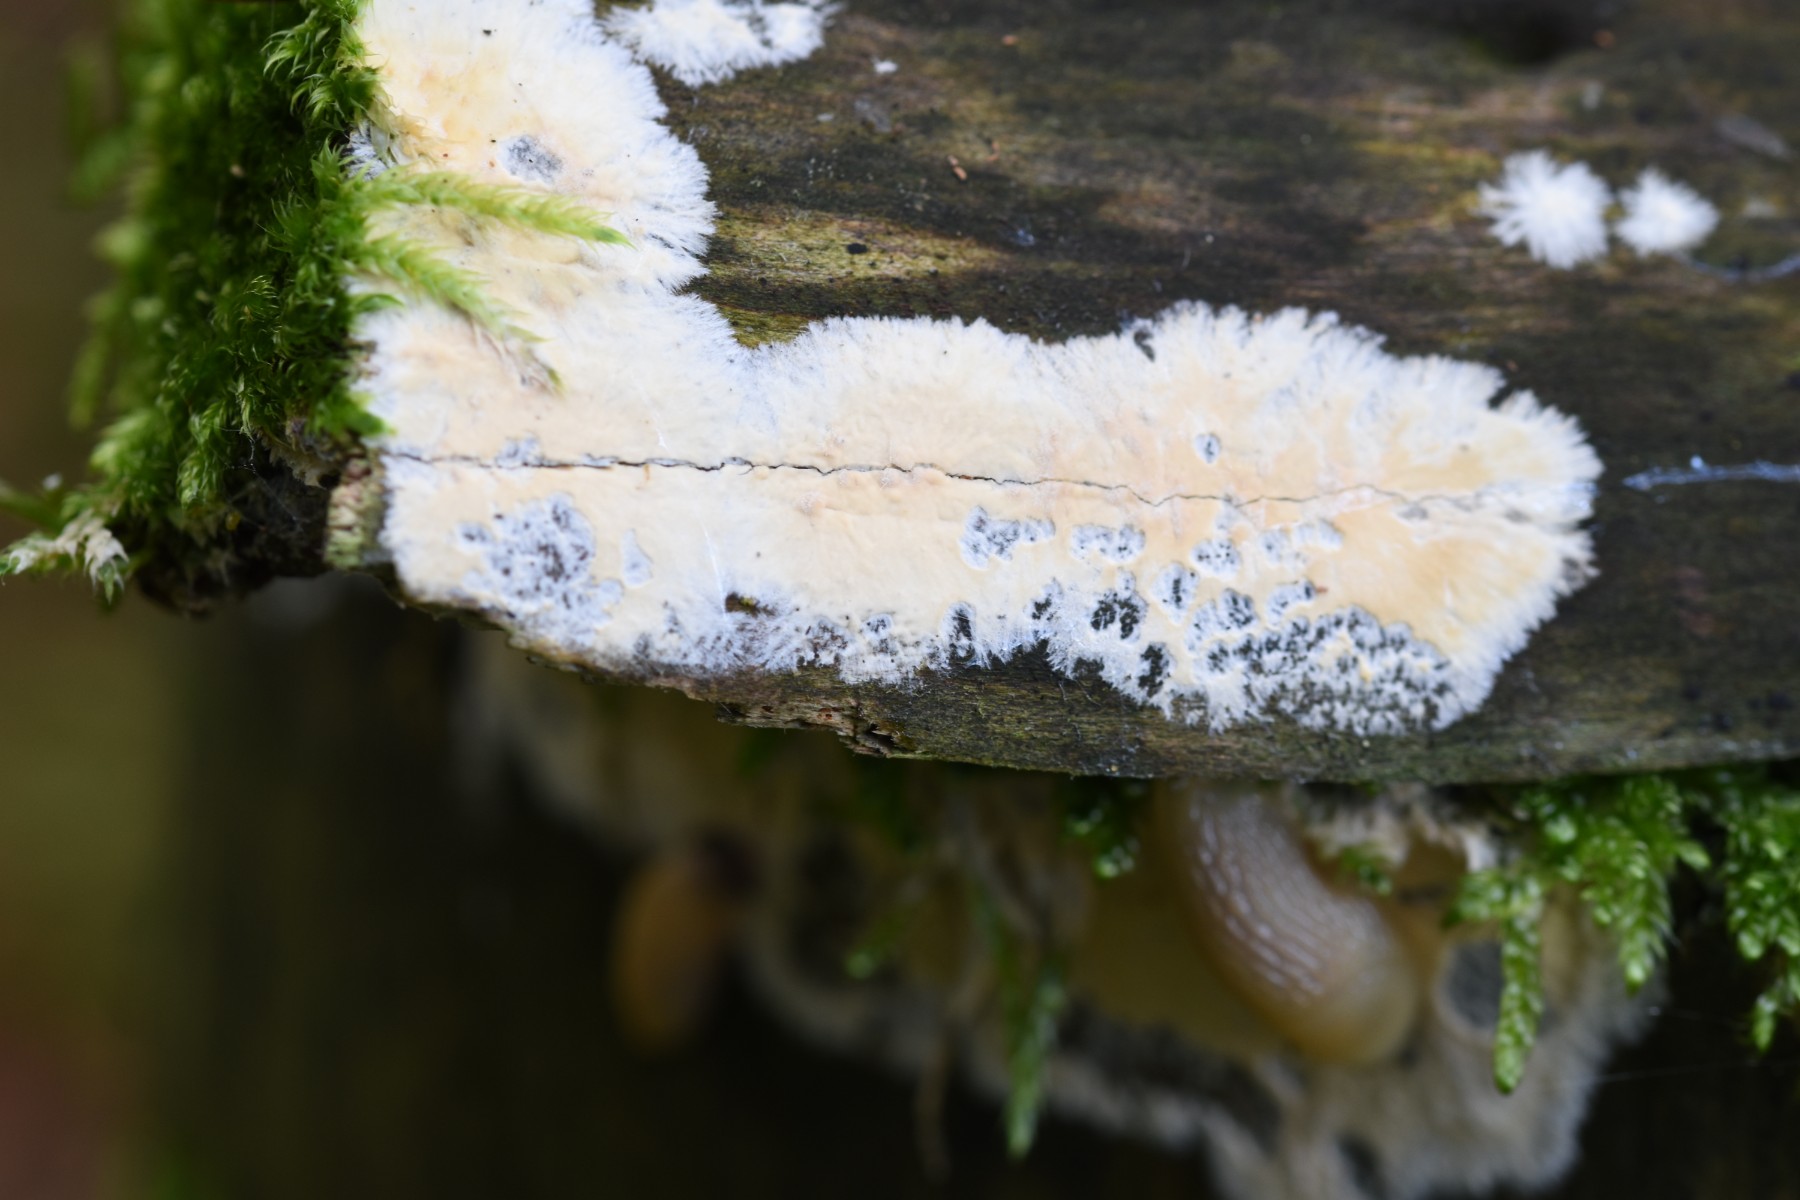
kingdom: Fungi
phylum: Basidiomycota
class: Agaricomycetes
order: Russulales
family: Peniophoraceae
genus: Gloiothele
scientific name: Gloiothele citrina
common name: citronskorpe
